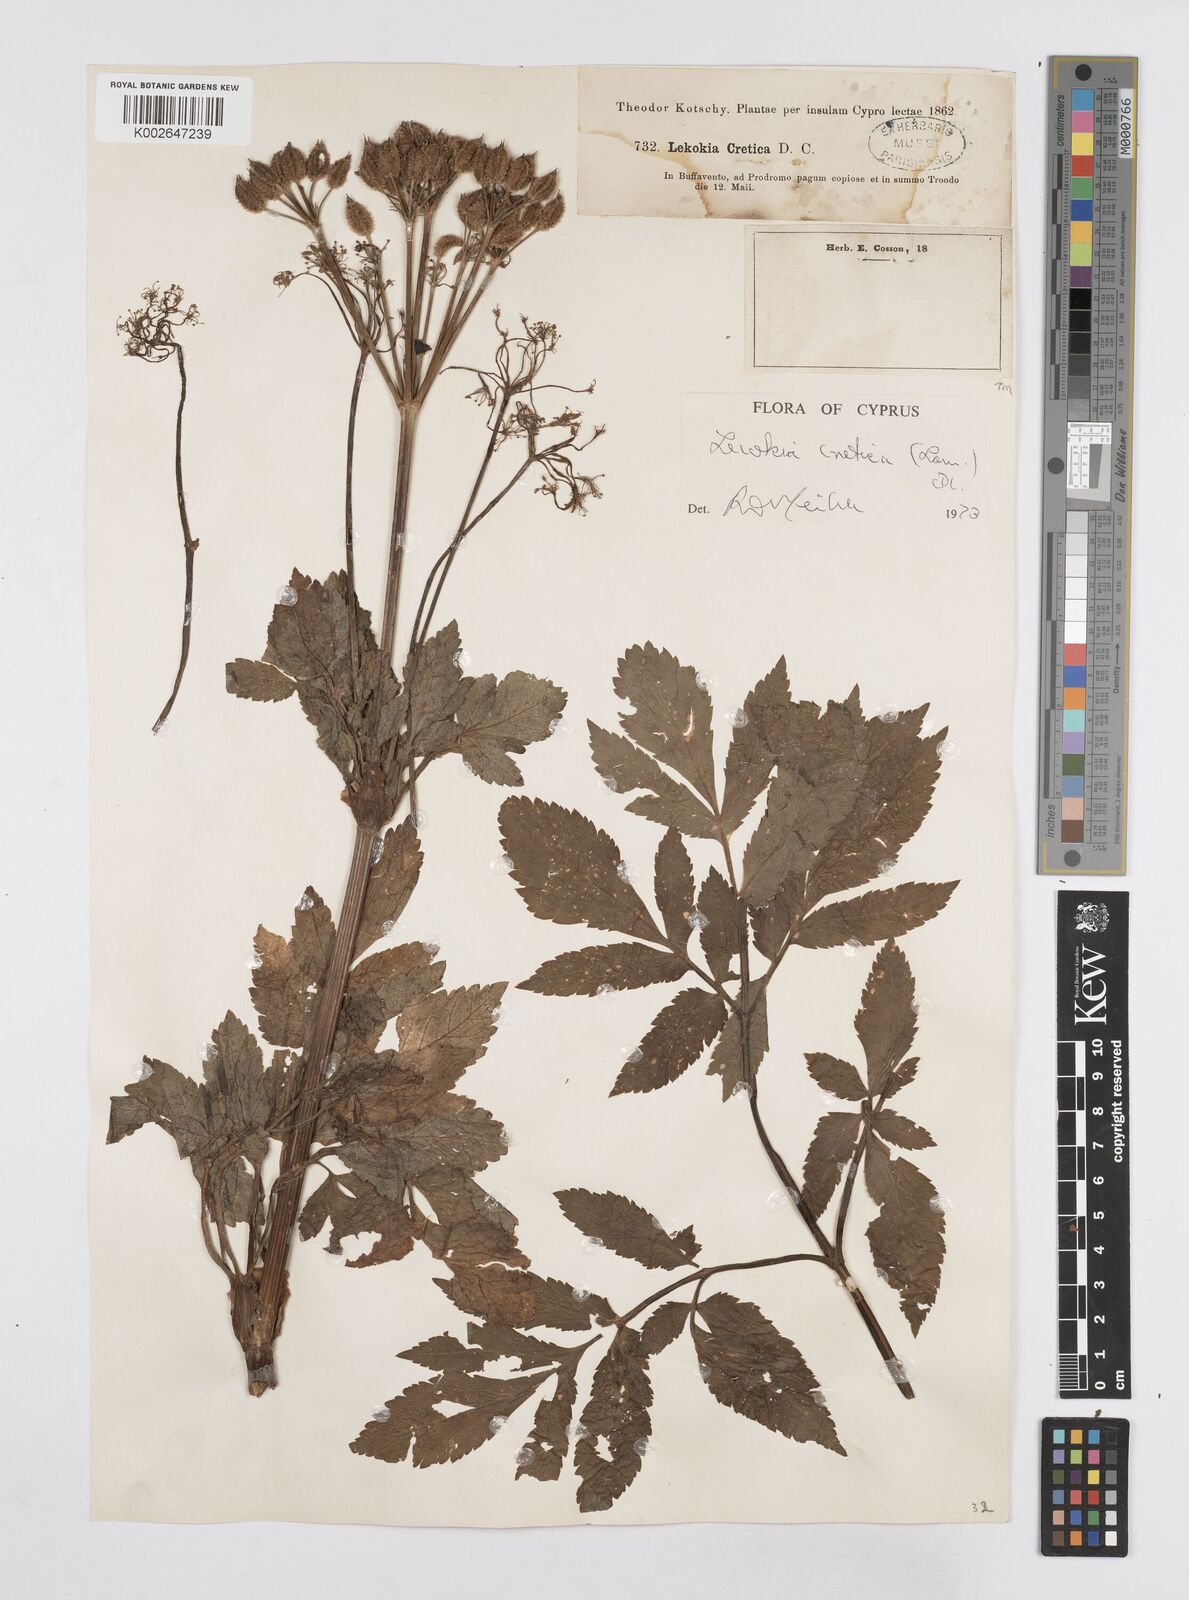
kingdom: Plantae
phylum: Tracheophyta
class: Magnoliopsida
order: Apiales
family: Apiaceae
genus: Lecokia
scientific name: Lecokia cretica
